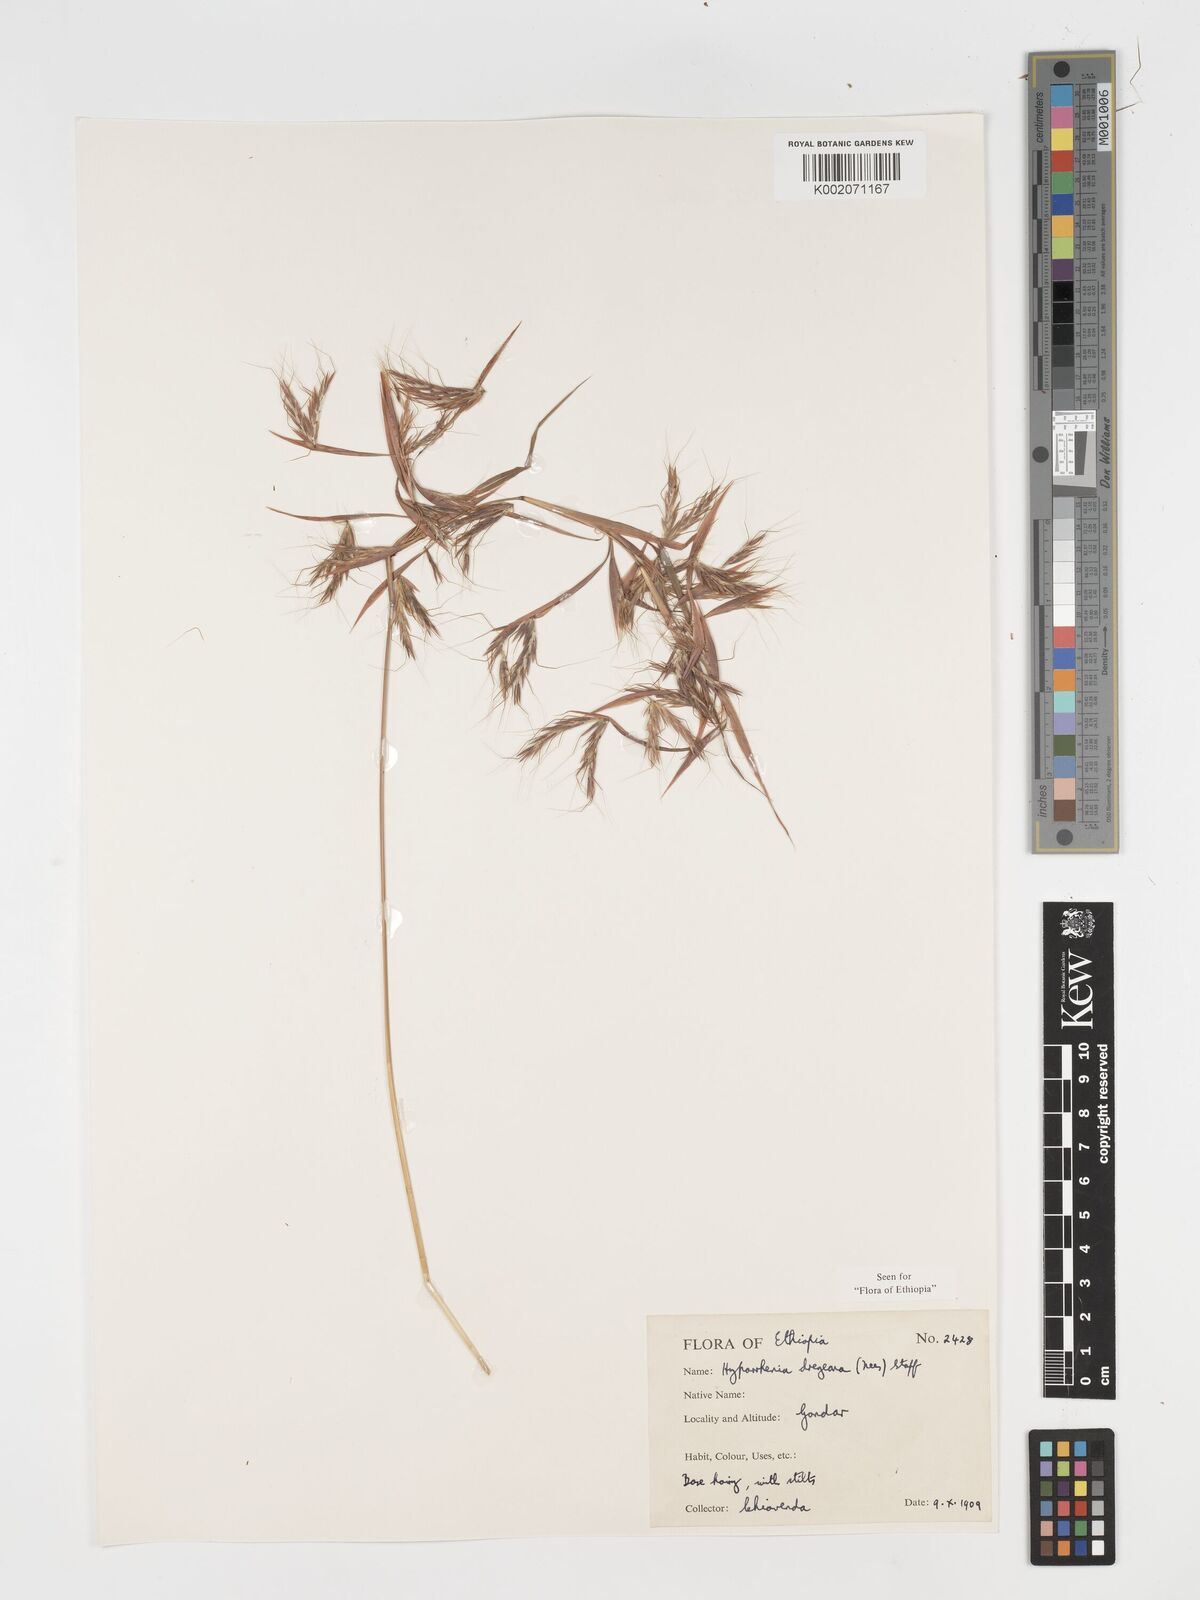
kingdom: Plantae
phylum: Tracheophyta
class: Liliopsida
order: Poales
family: Poaceae
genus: Hyparrhenia
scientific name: Hyparrhenia dregeana
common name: Silky thatching grass
